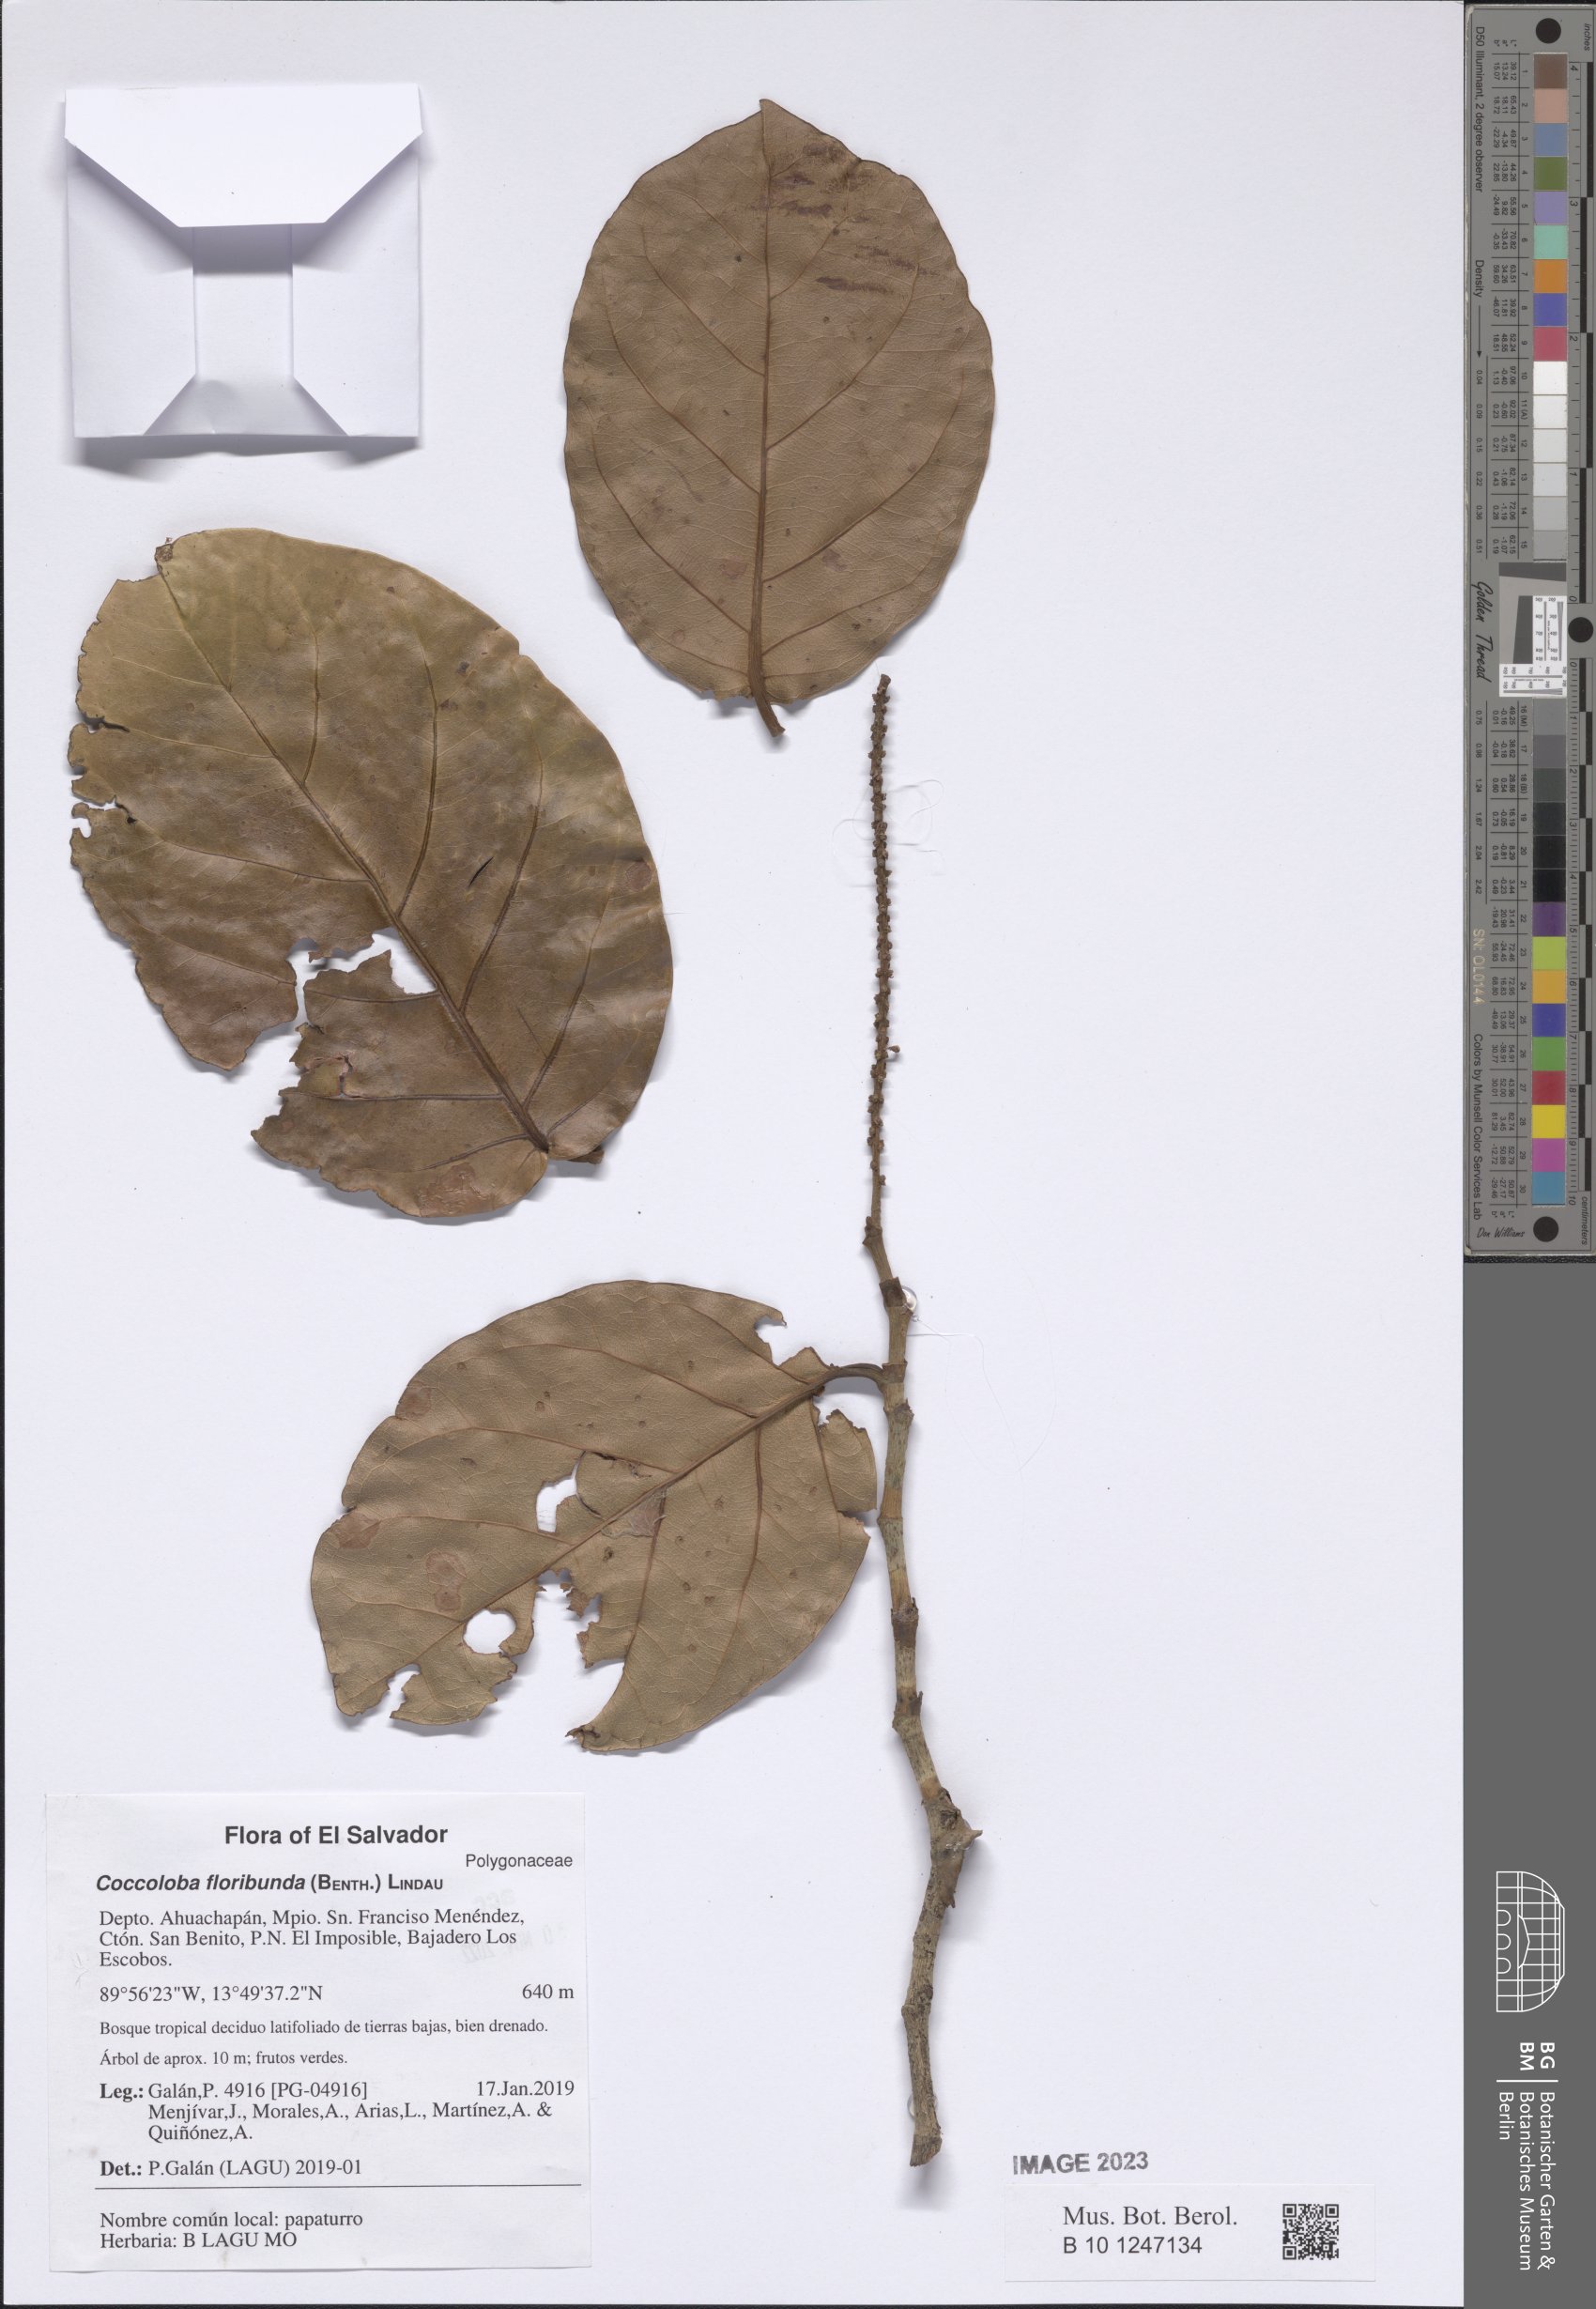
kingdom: Plantae
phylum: Tracheophyta
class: Magnoliopsida
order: Caryophyllales
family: Polygonaceae
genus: Coccoloba
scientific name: Coccoloba floribunda
